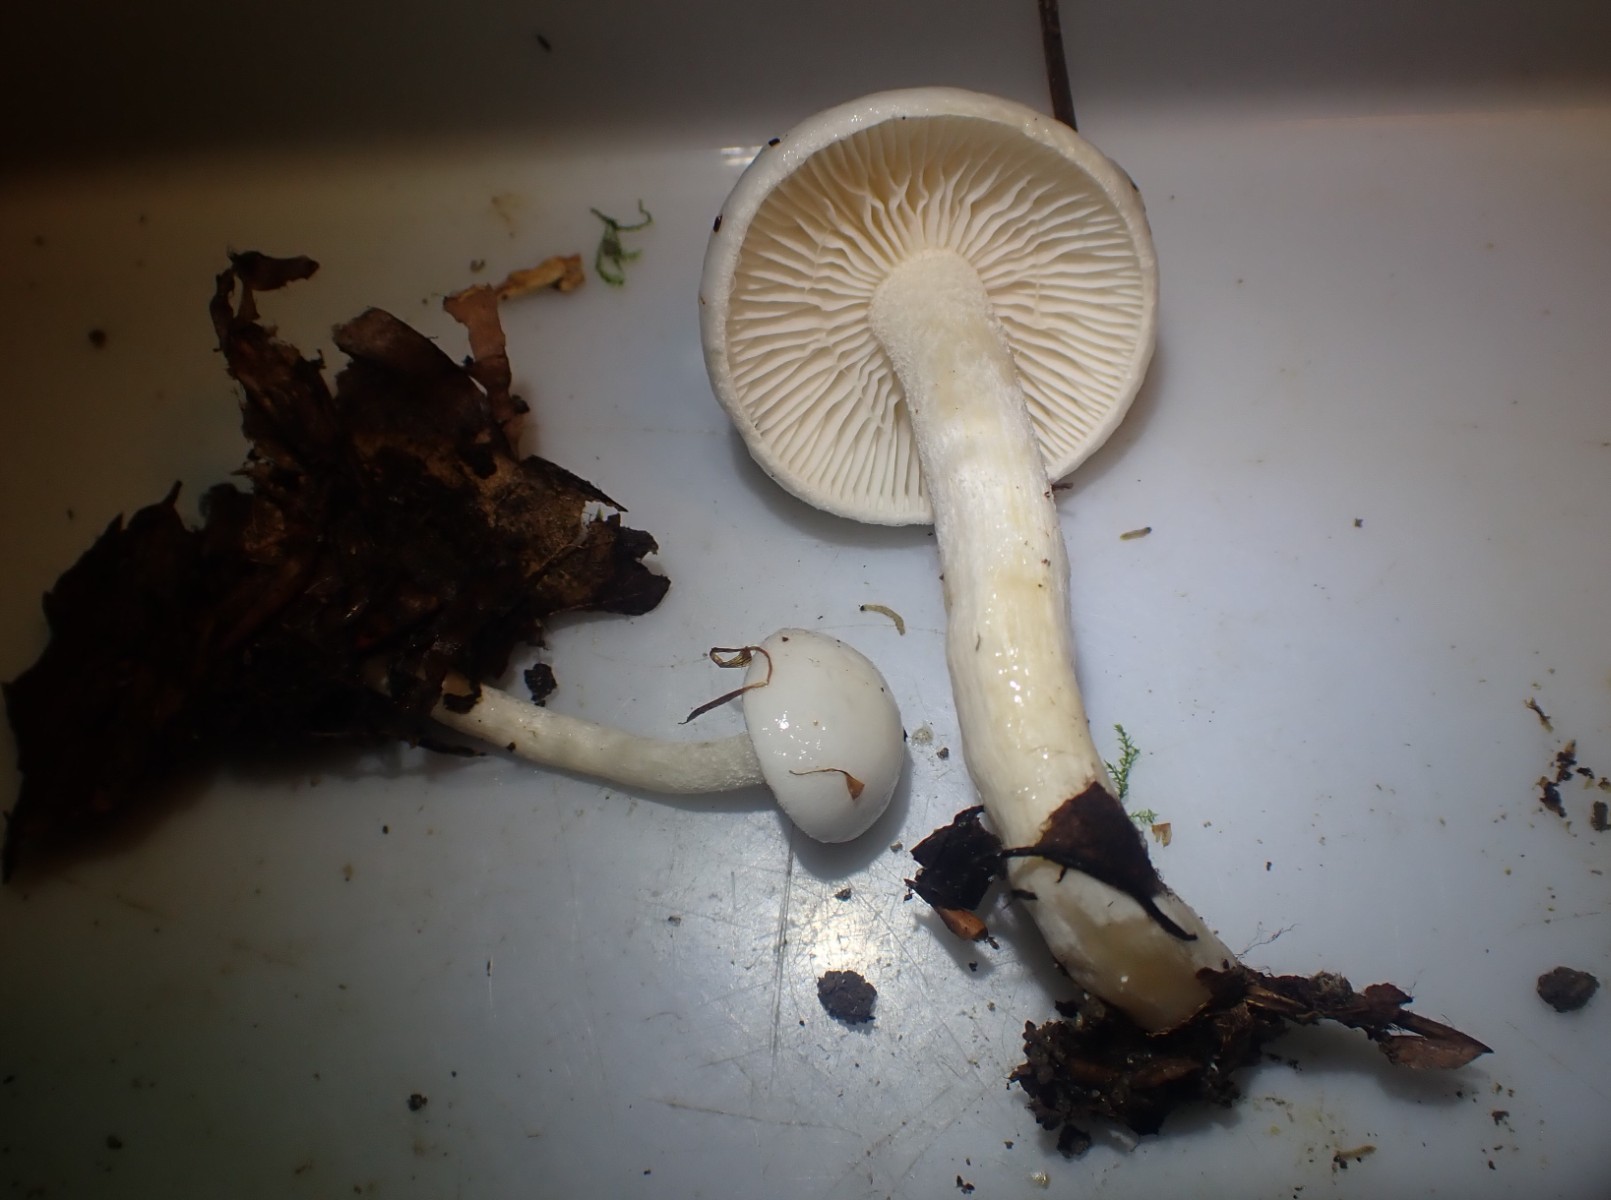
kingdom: Fungi
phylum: Basidiomycota
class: Agaricomycetes
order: Agaricales
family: Hygrophoraceae
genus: Hygrophorus
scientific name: Hygrophorus eburneus
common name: elfenbens-sneglehat
